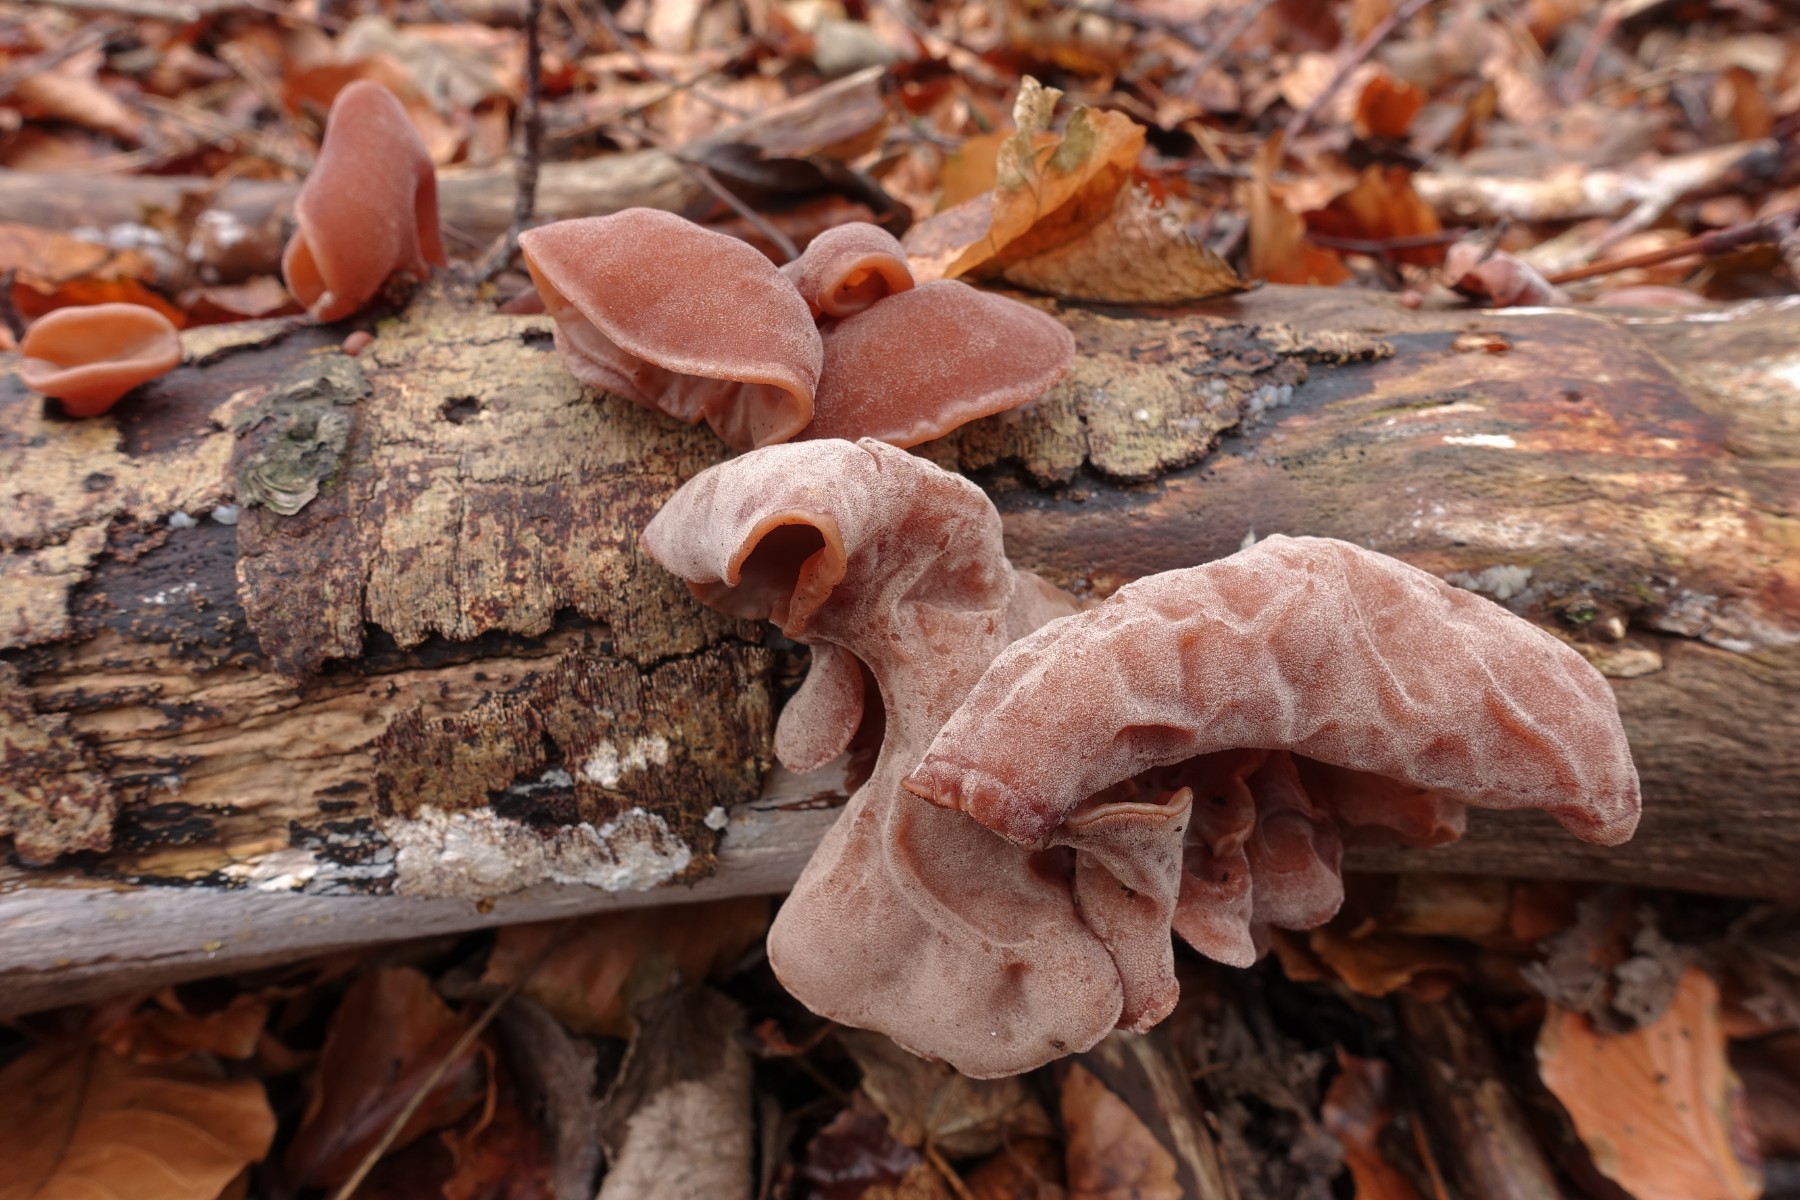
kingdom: Fungi
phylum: Basidiomycota
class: Agaricomycetes
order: Auriculariales
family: Auriculariaceae
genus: Auricularia
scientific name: Auricularia auricula-judae
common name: almindelig judasøre
